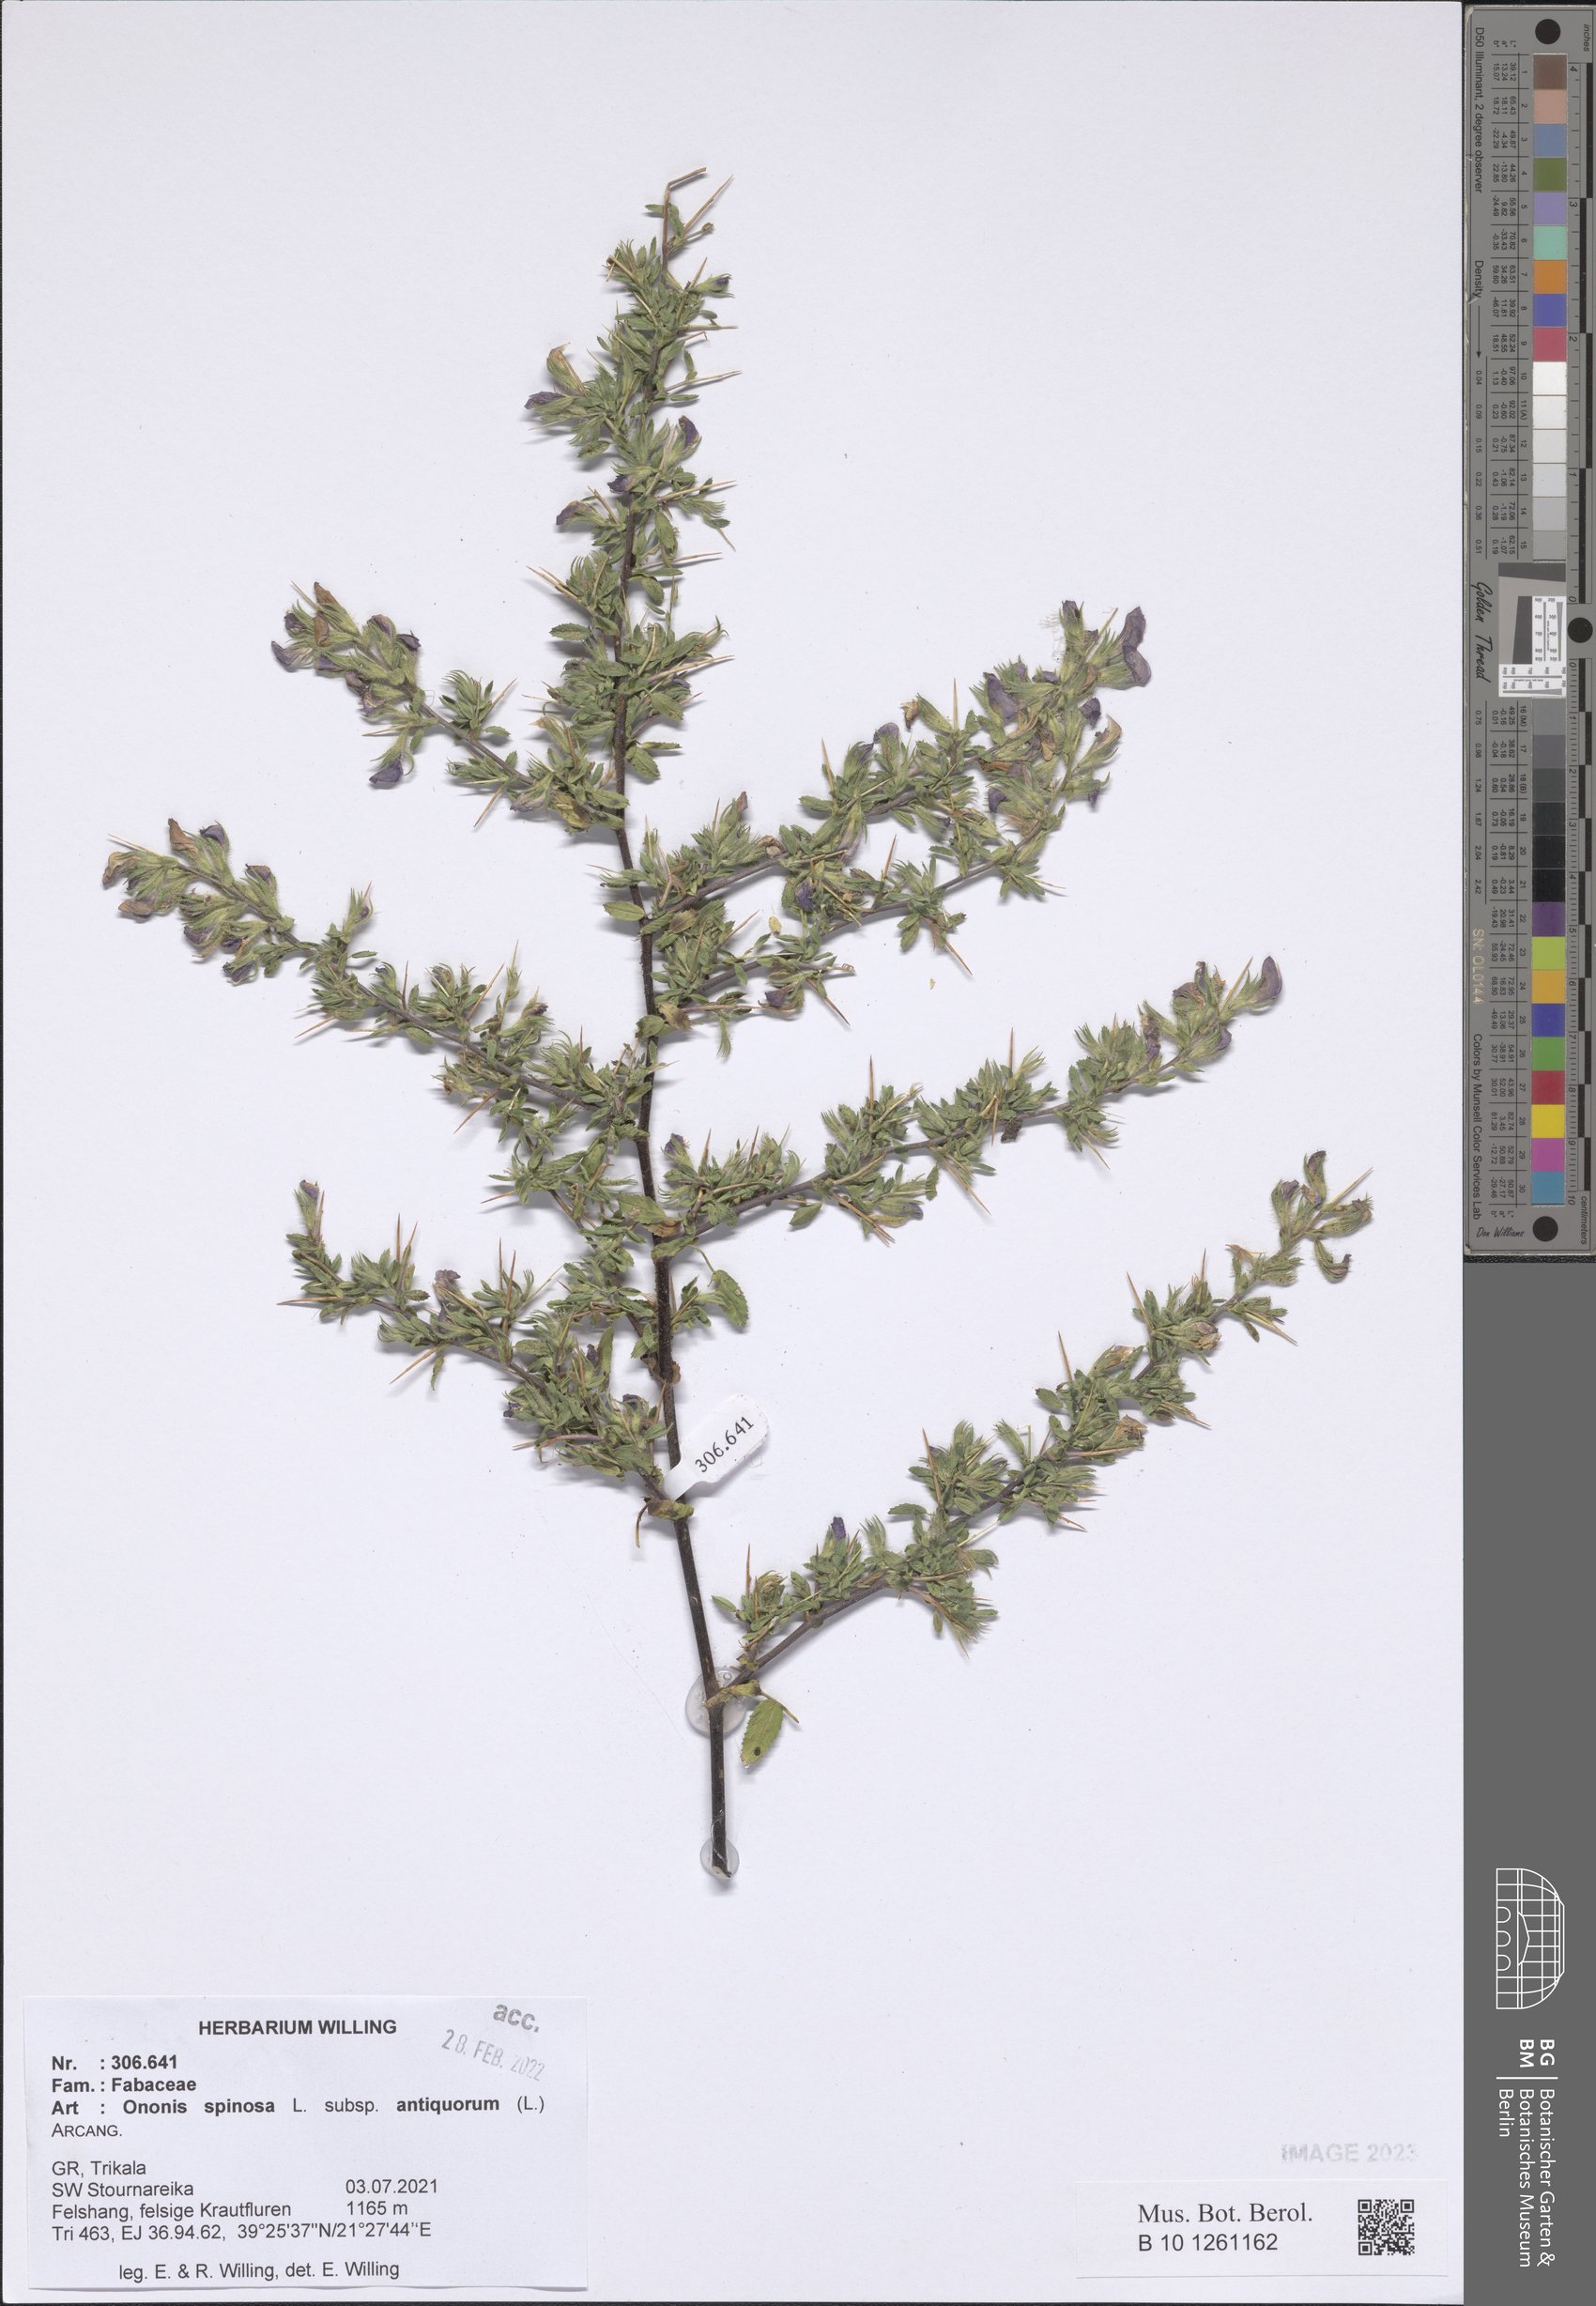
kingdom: Plantae
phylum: Tracheophyta
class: Magnoliopsida
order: Fabales
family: Fabaceae
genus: Ononis
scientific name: Ononis spinosa
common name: Spiny restharrow
